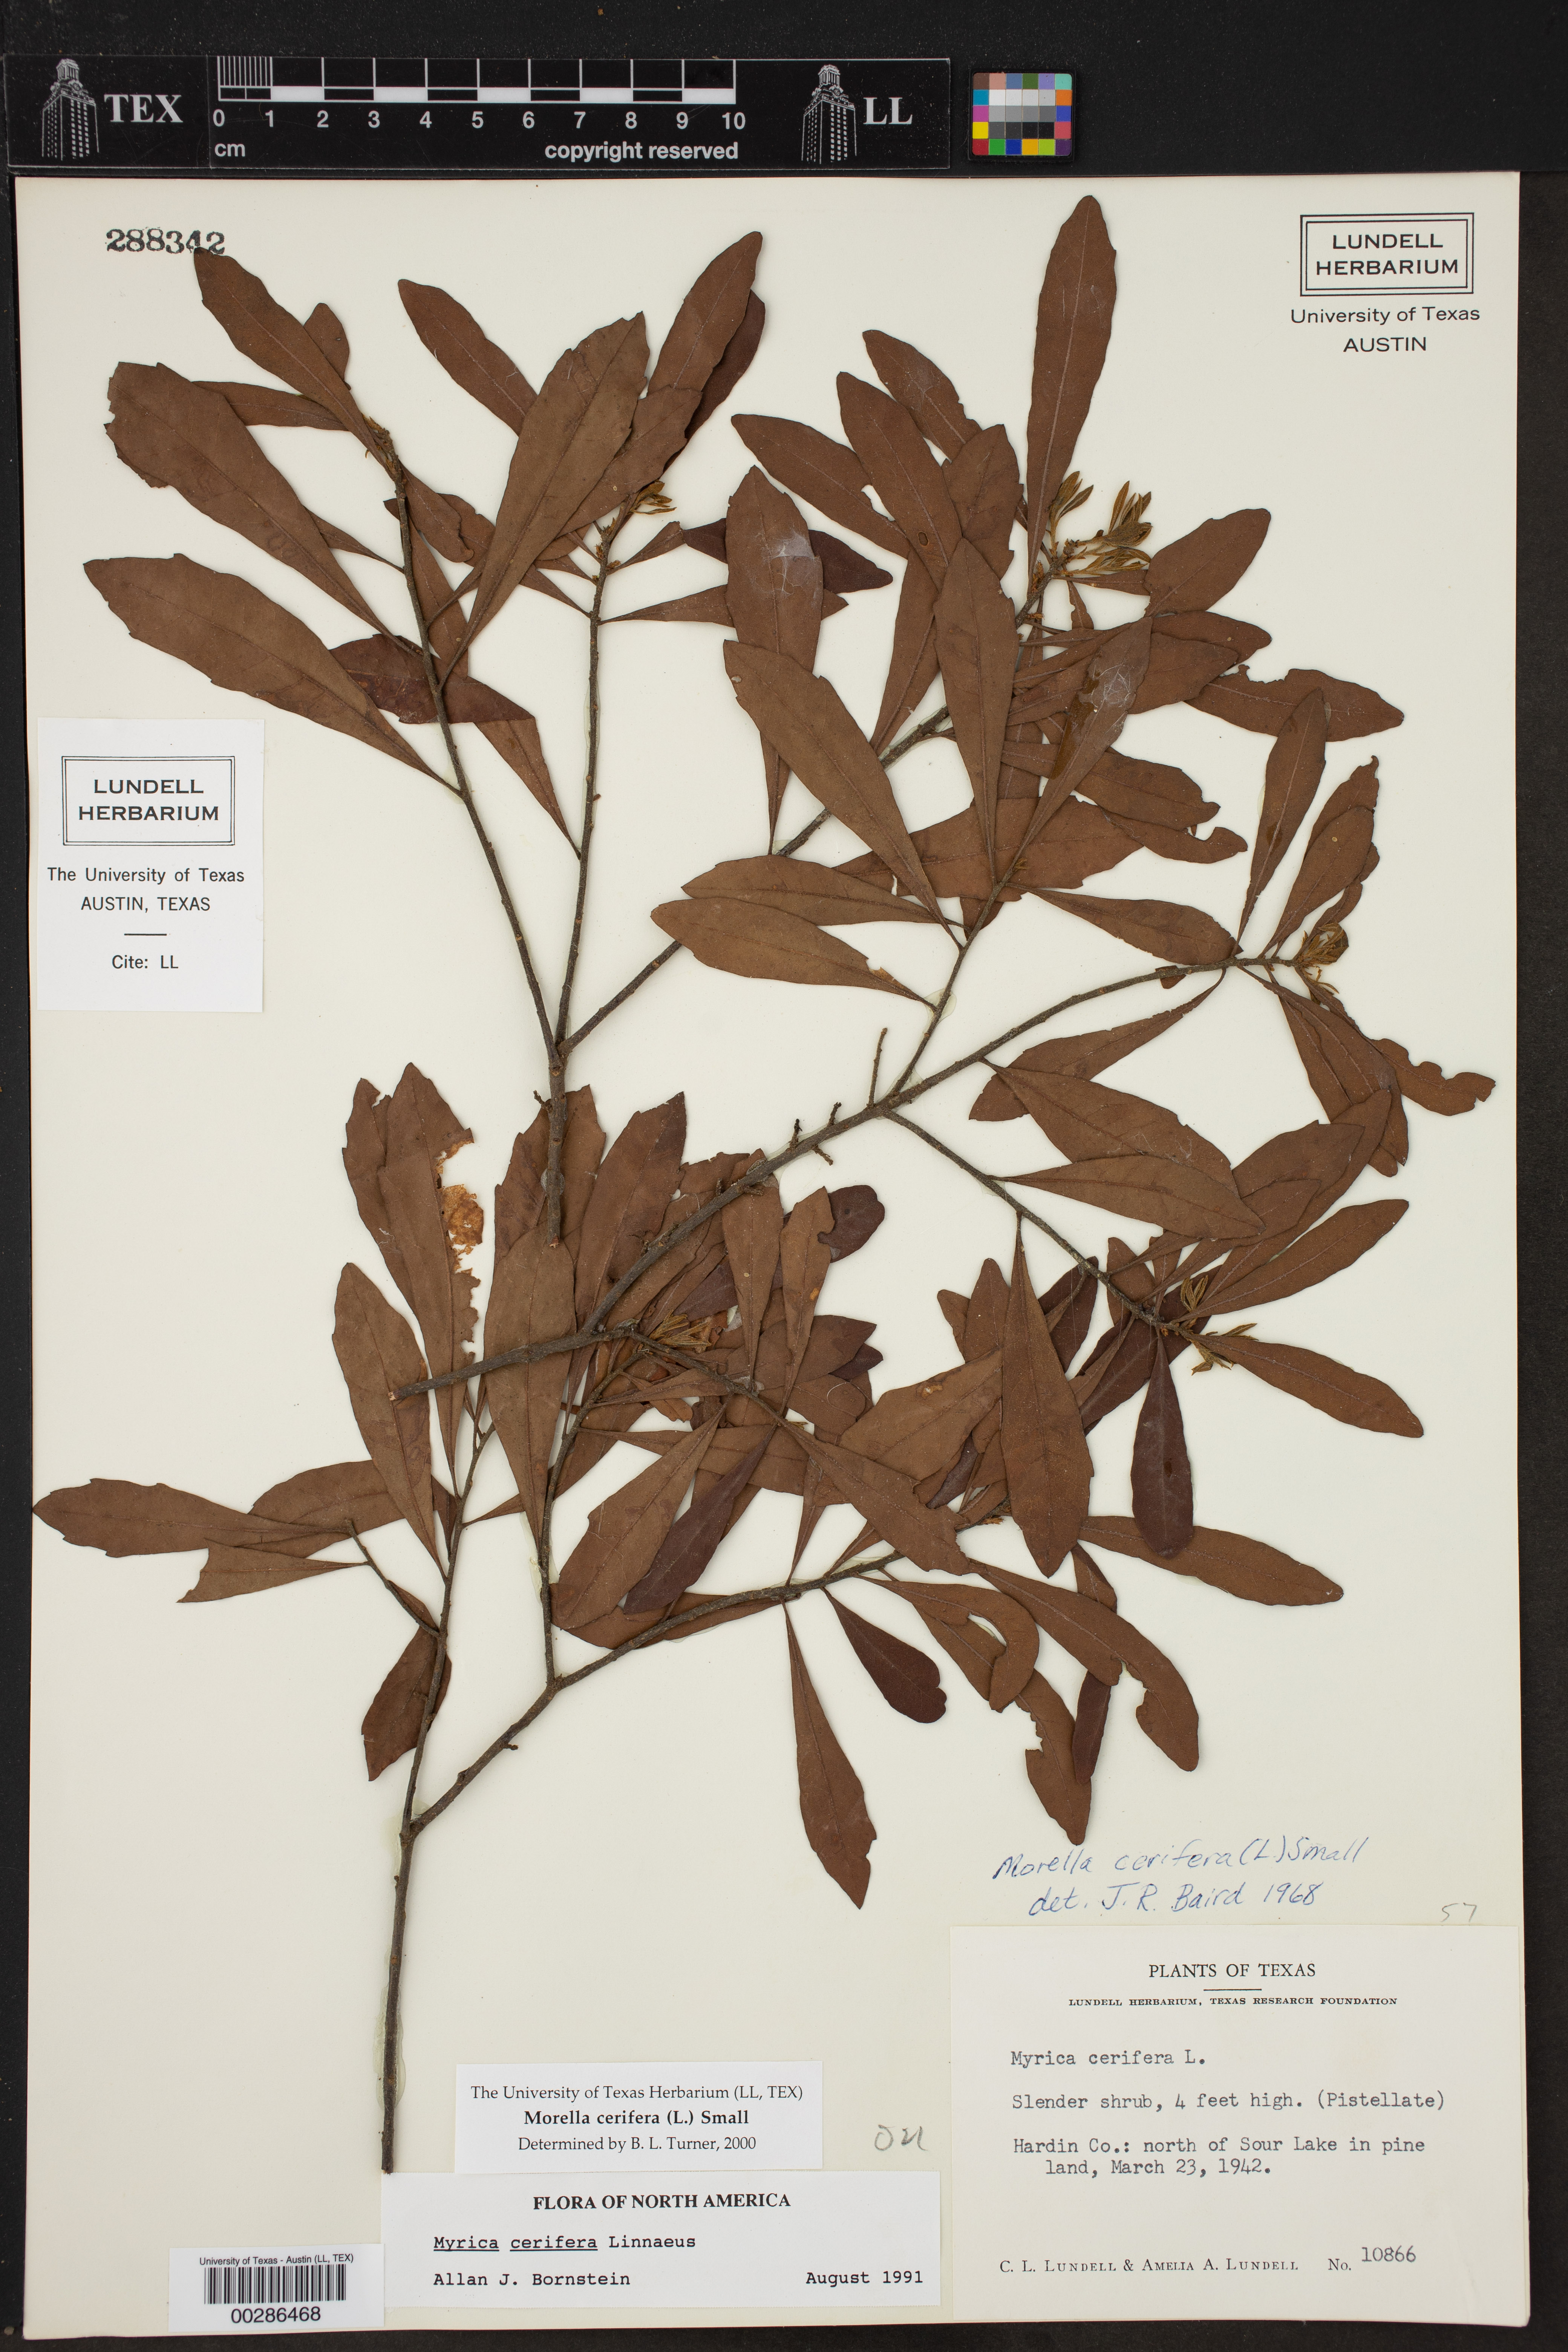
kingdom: Plantae
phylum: Tracheophyta
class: Magnoliopsida
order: Fagales
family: Myricaceae
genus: Morella
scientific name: Morella cerifera
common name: Wax myrtle
